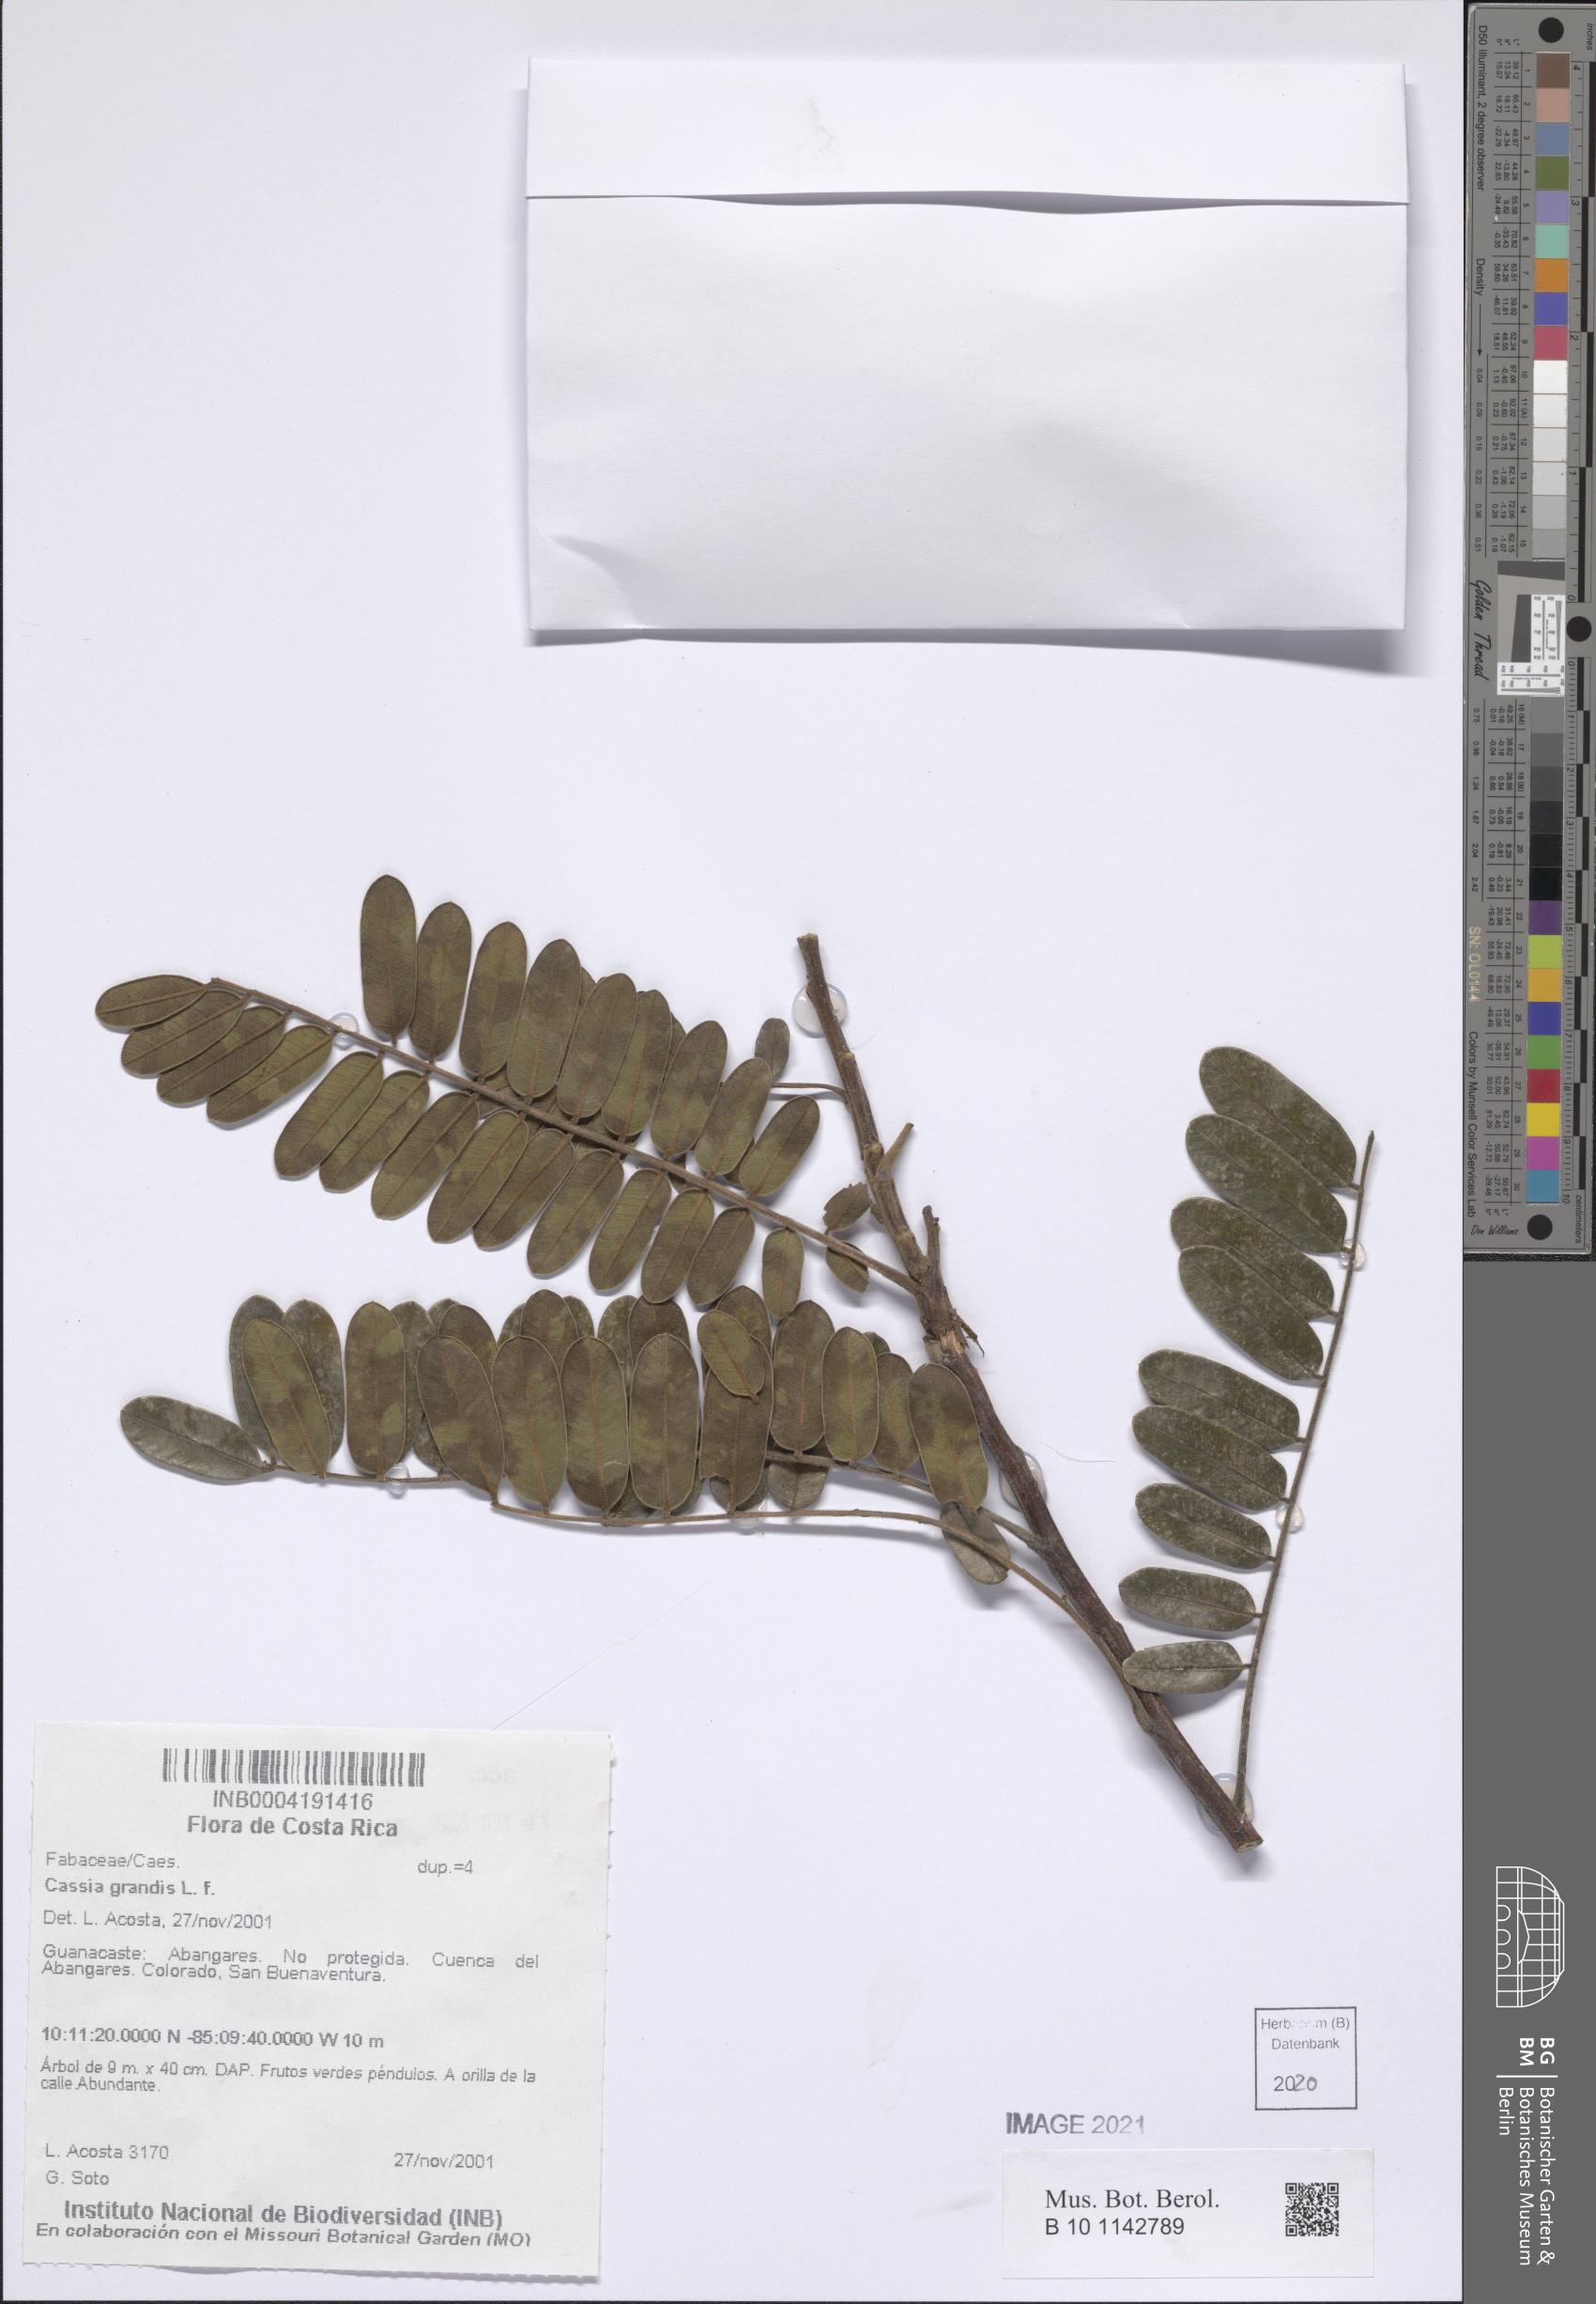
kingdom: Plantae
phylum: Tracheophyta
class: Magnoliopsida
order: Fabales
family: Fabaceae
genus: Cassia
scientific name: Cassia grandis
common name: Appleblossom cassia
